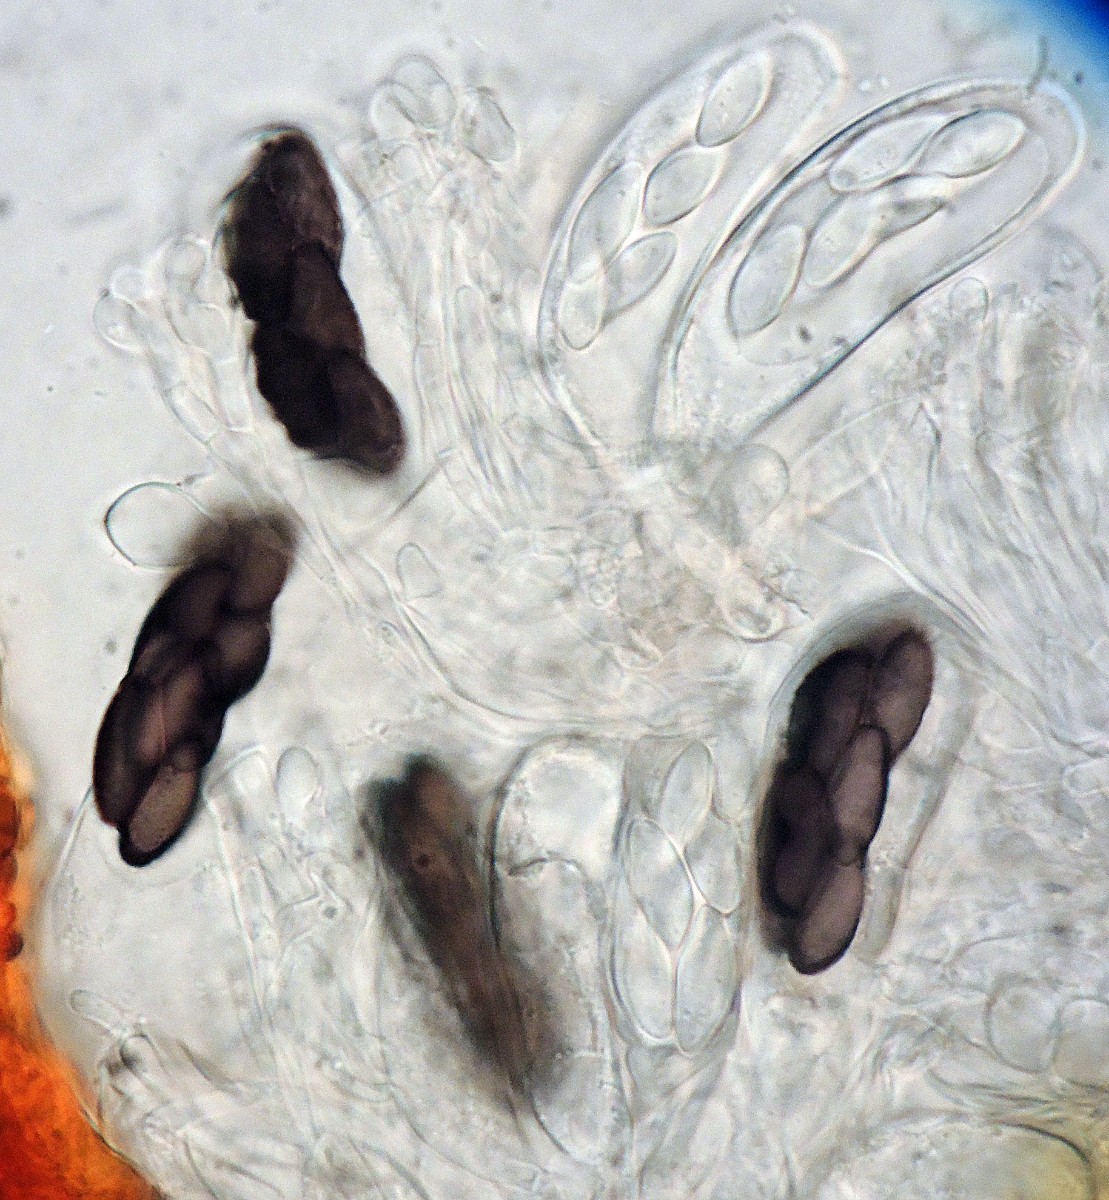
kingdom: Fungi
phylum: Ascomycota
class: Pezizomycetes
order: Pezizales
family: Ascobolaceae
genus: Saccobolus
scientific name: Saccobolus verrucisporus
